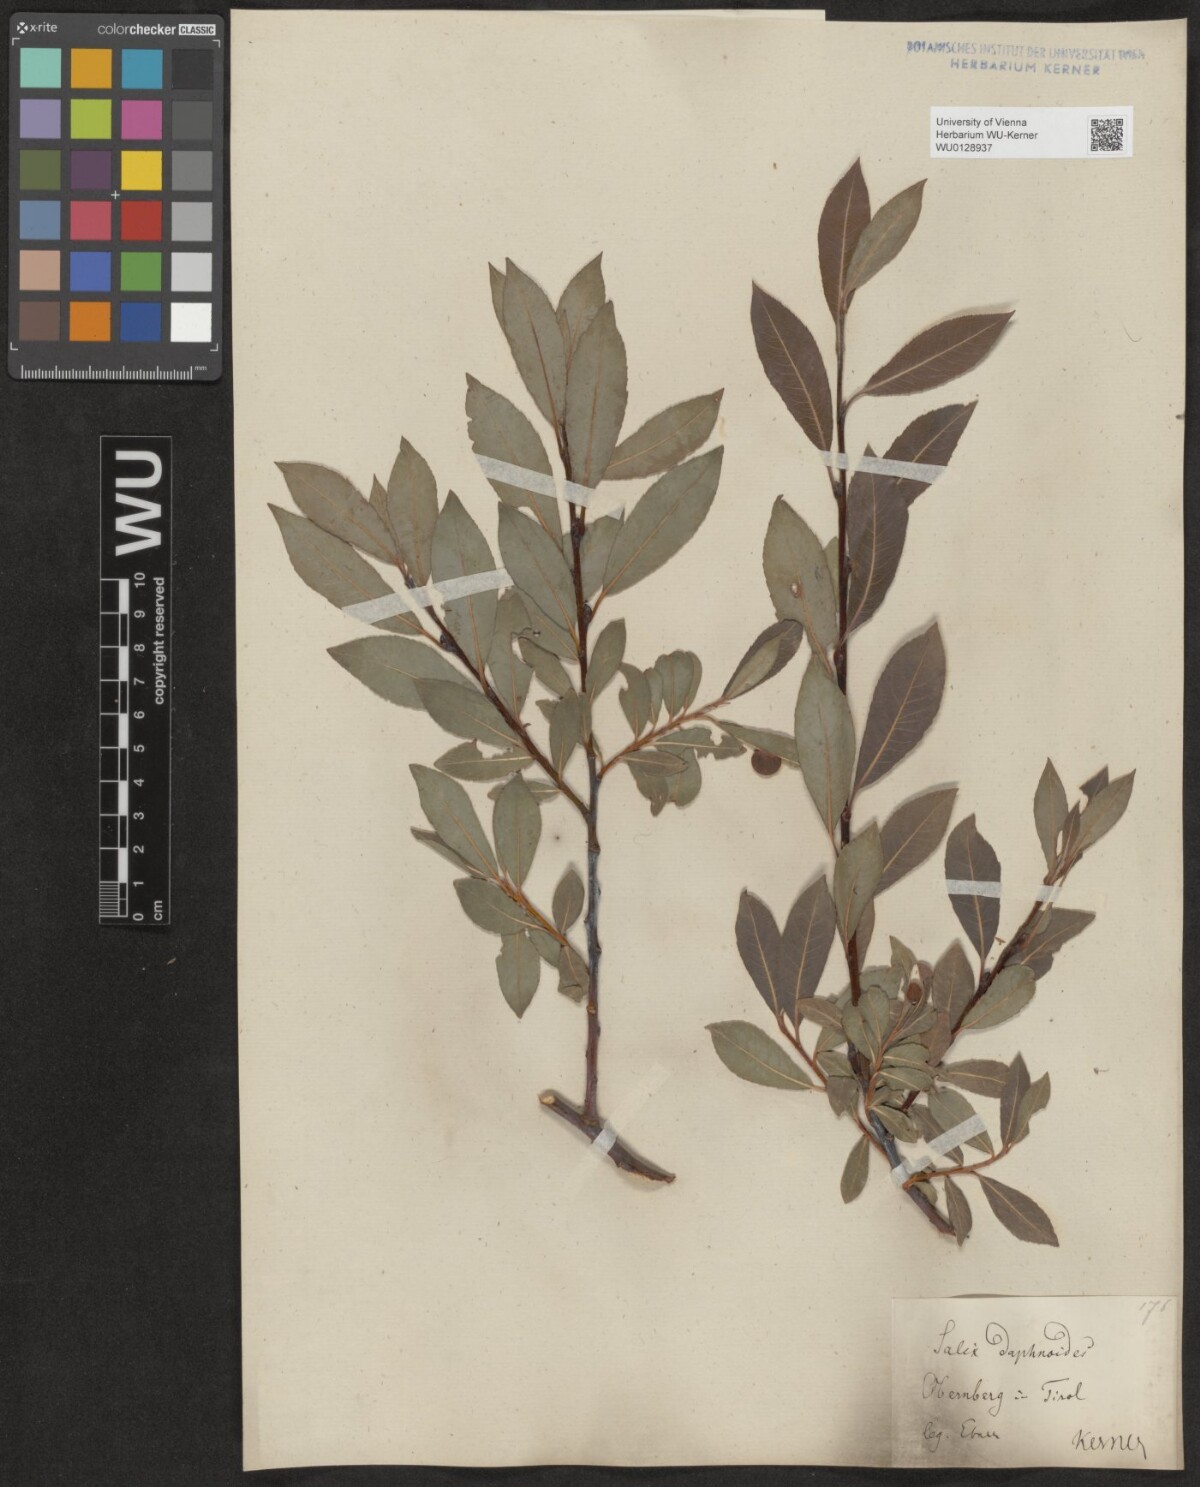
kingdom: Plantae
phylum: Tracheophyta
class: Magnoliopsida
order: Malpighiales
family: Salicaceae
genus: Salix
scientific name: Salix daphnoides
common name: European violet-willow
